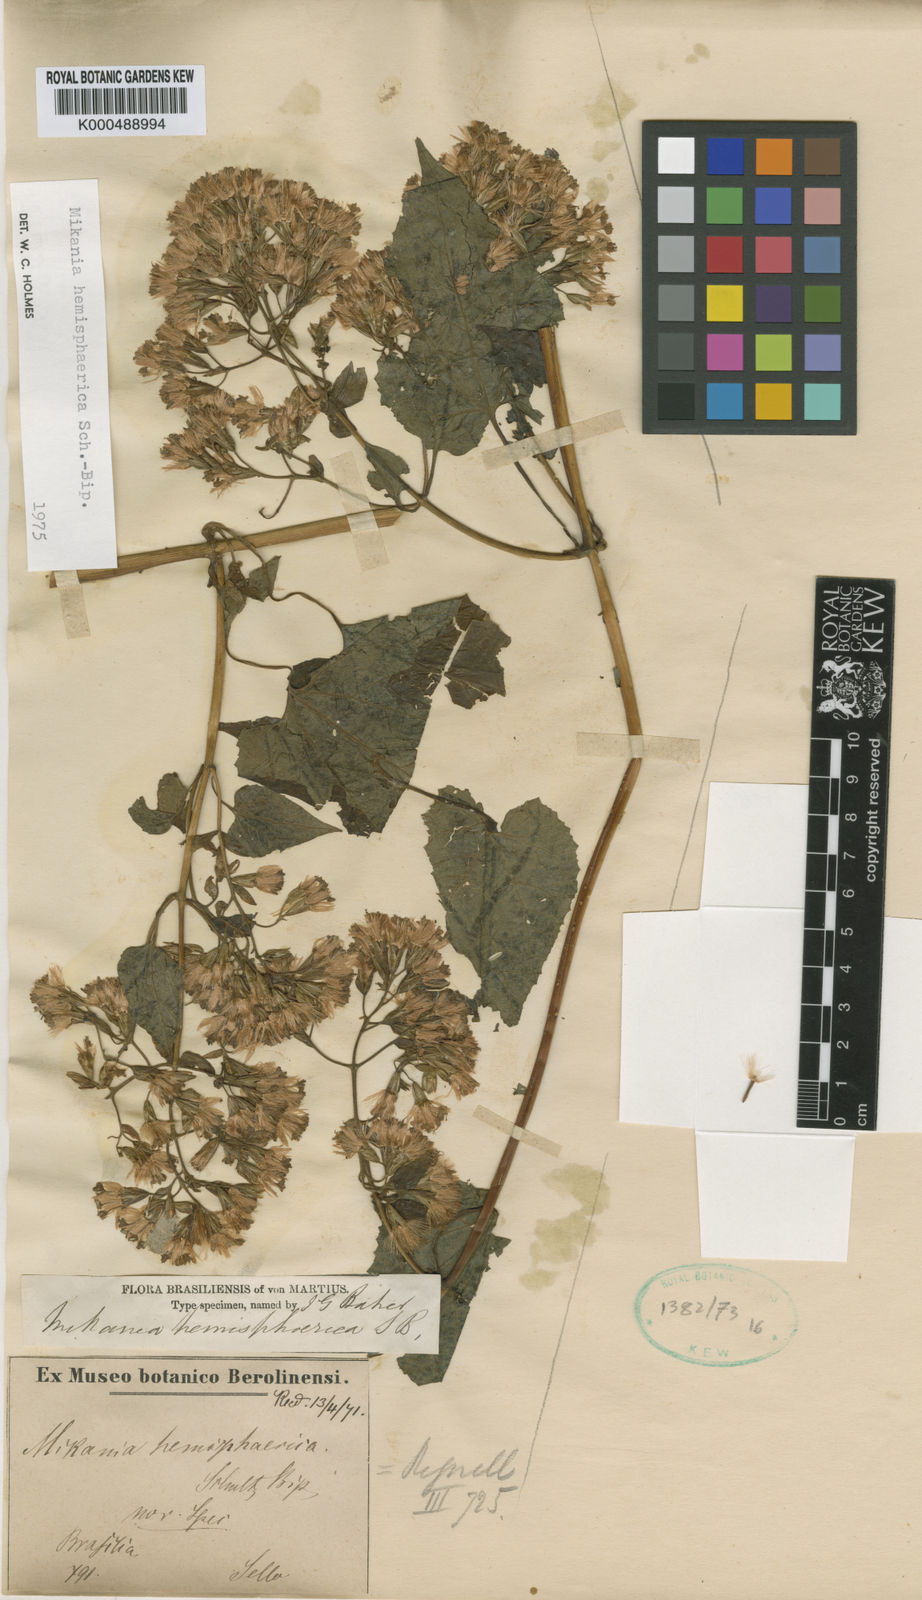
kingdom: Plantae
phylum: Tracheophyta
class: Magnoliopsida
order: Asterales
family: Asteraceae
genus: Mikania
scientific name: Mikania hemisphaerica
